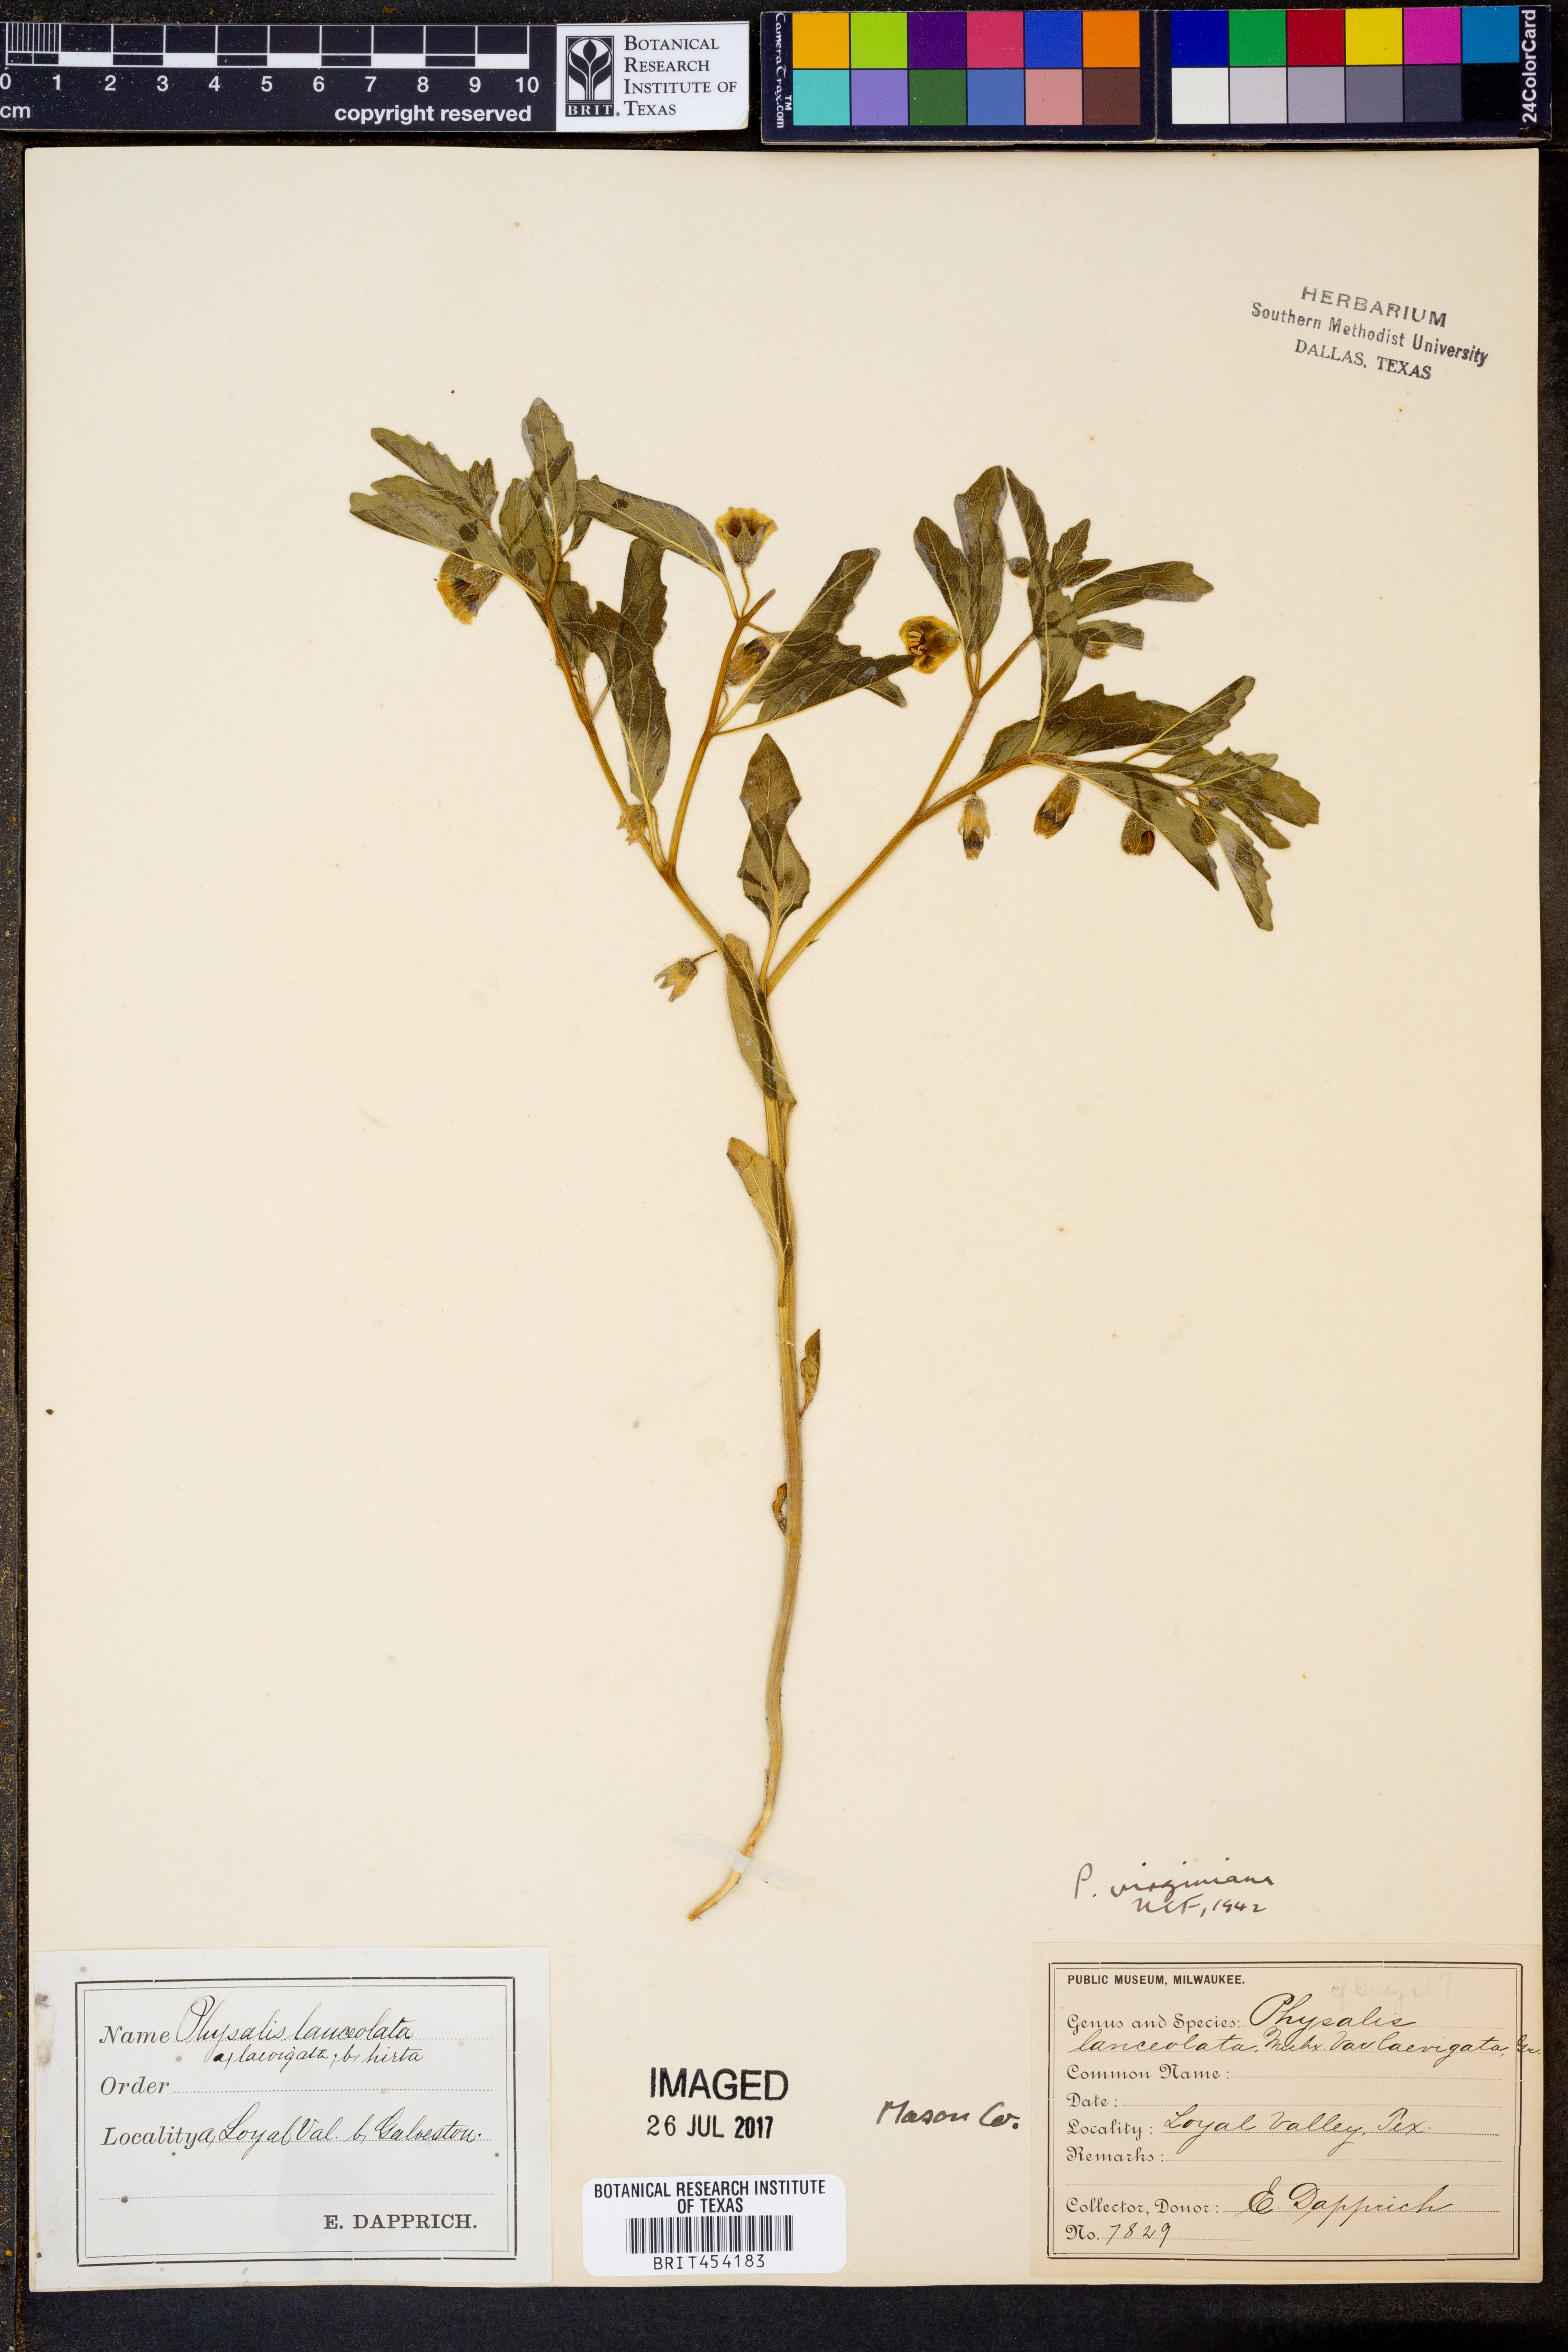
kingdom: Plantae
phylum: Tracheophyta
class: Magnoliopsida
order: Solanales
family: Solanaceae
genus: Physalis
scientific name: Physalis lanceolata
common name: Lance-leaved ground-cherry
